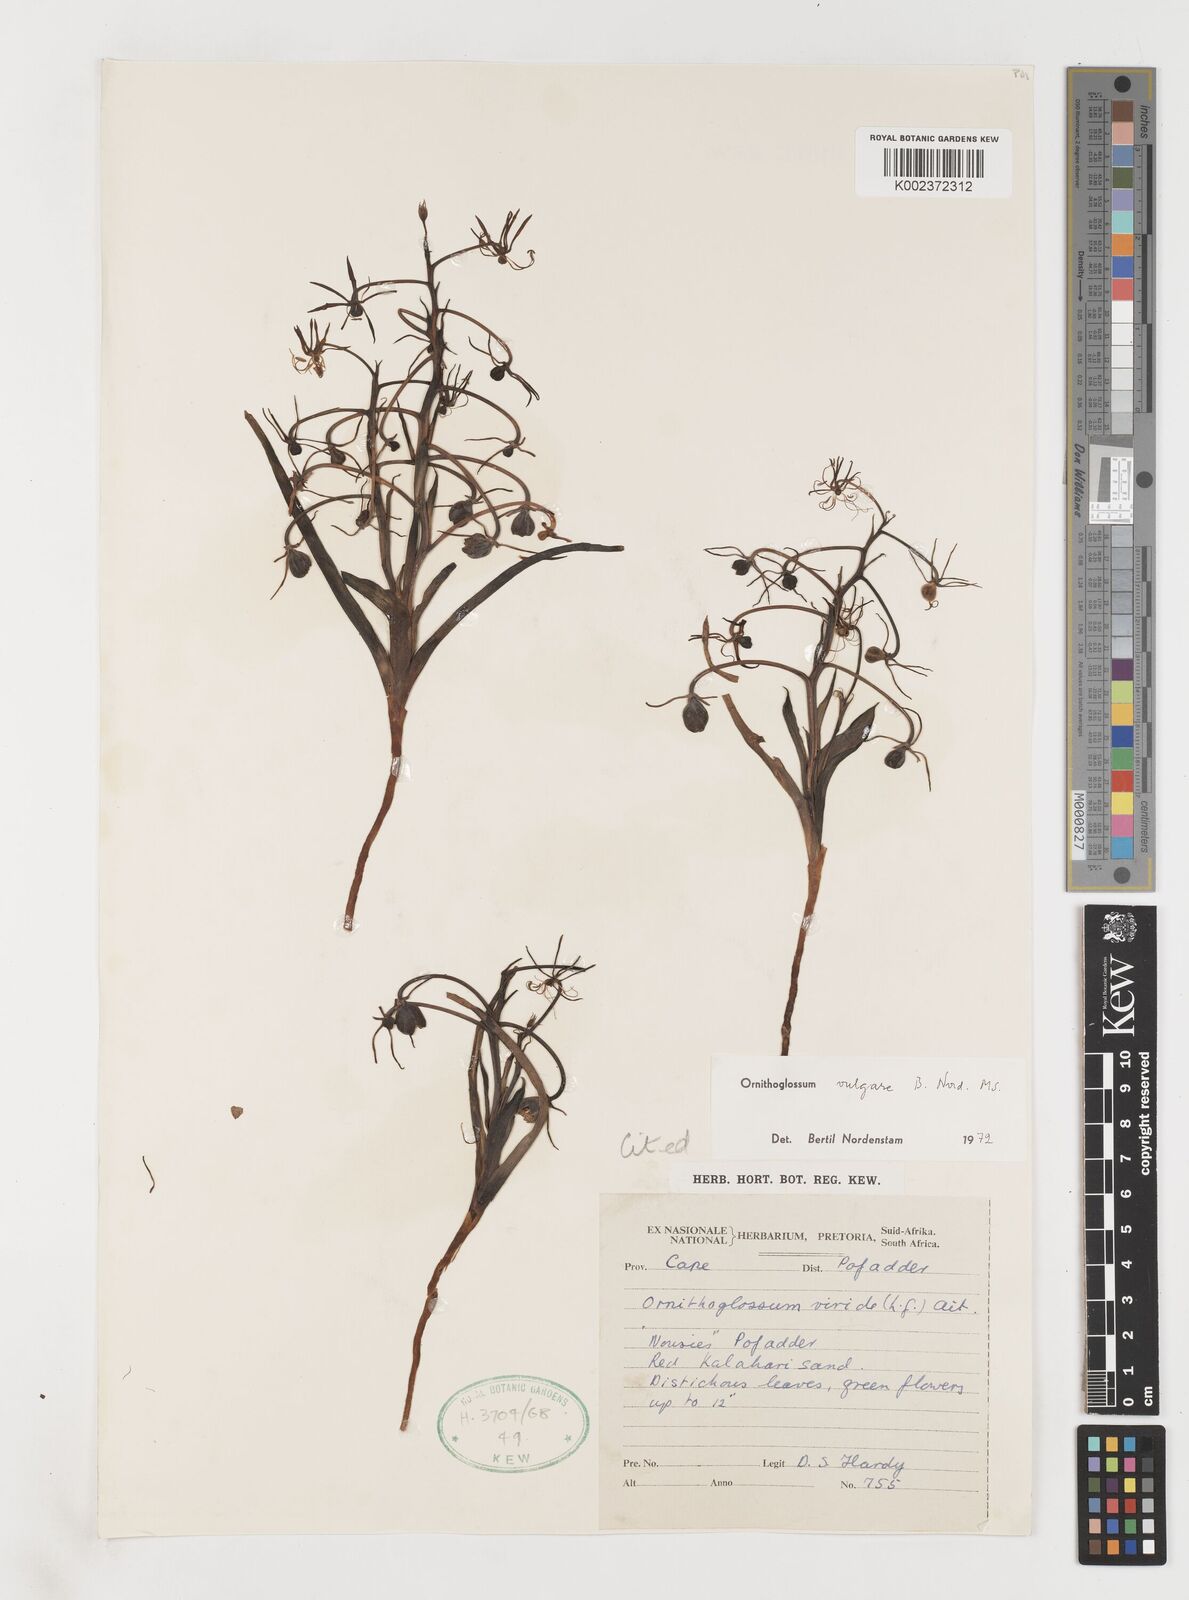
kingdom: Plantae
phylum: Tracheophyta
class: Liliopsida
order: Liliales
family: Colchicaceae
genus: Ornithoglossum
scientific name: Ornithoglossum vulgare
